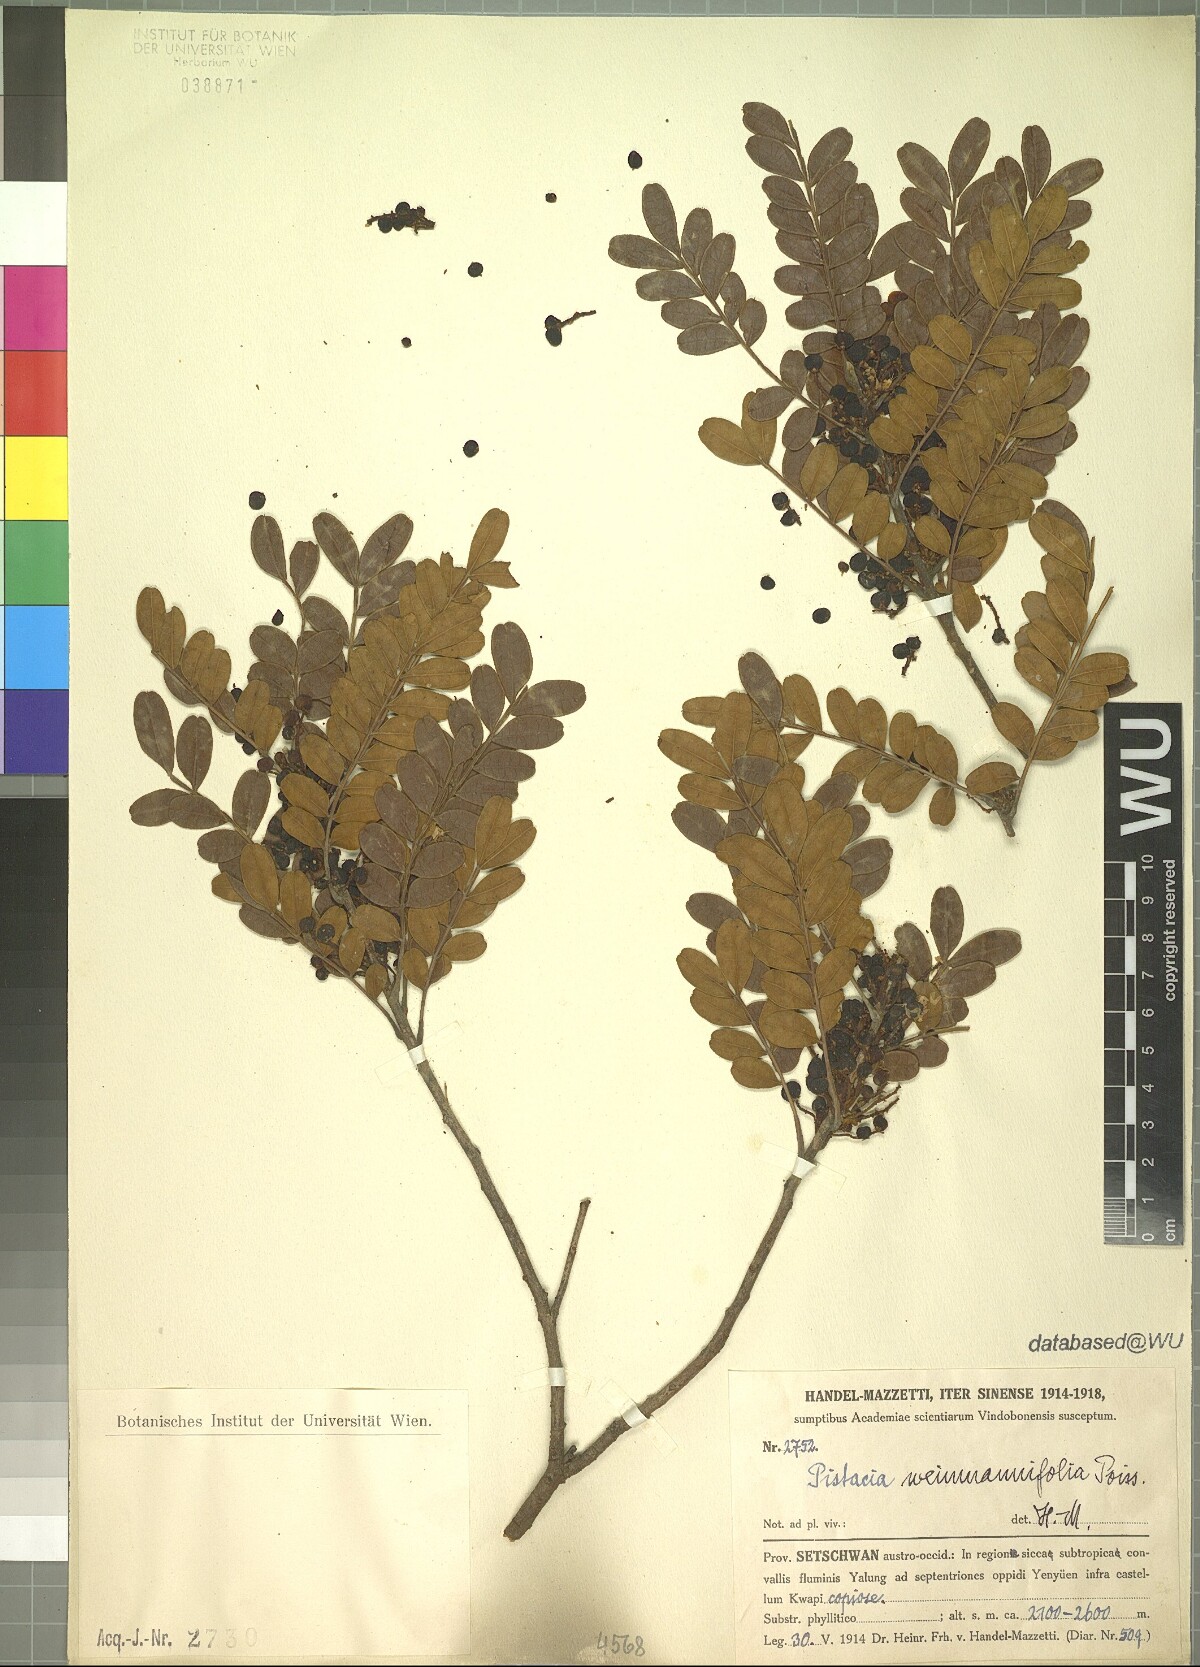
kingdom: Plantae
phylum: Tracheophyta
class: Magnoliopsida
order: Sapindales
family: Anacardiaceae
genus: Pistacia
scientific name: Pistacia weinmannifolia
